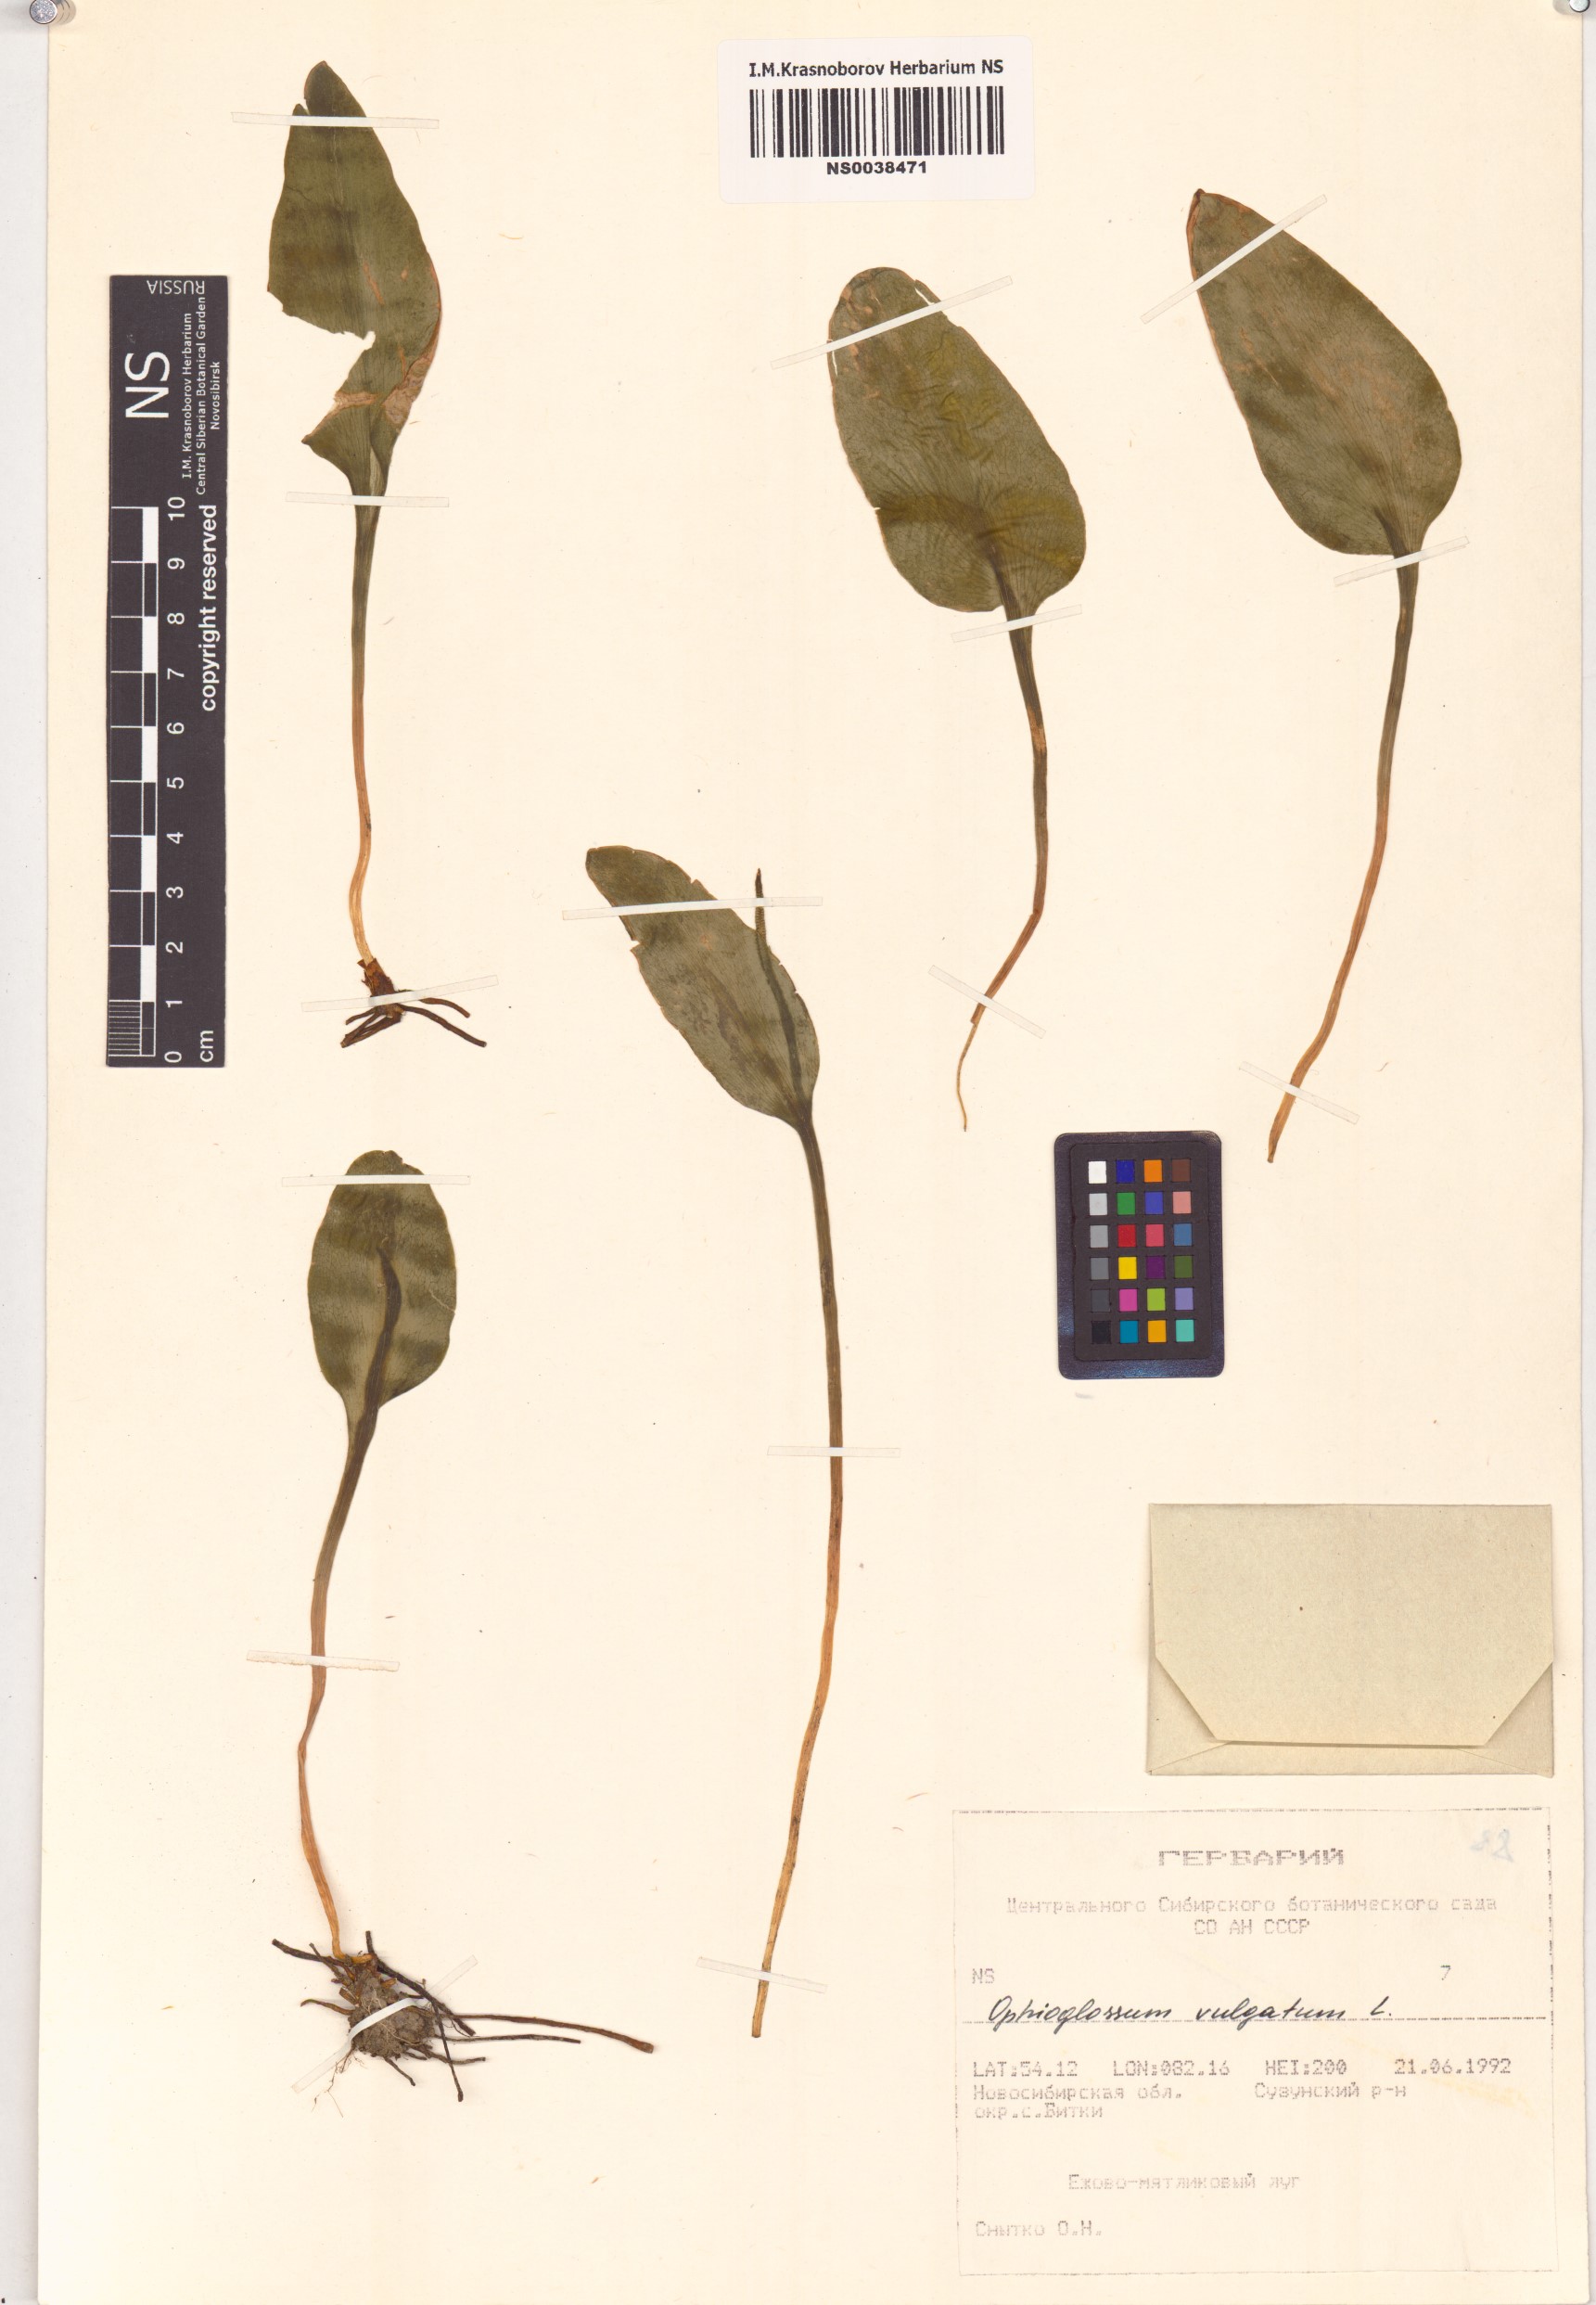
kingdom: Plantae
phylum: Tracheophyta
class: Polypodiopsida
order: Ophioglossales
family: Ophioglossaceae
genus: Ophioglossum
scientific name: Ophioglossum vulgatum
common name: Adder's-tongue
